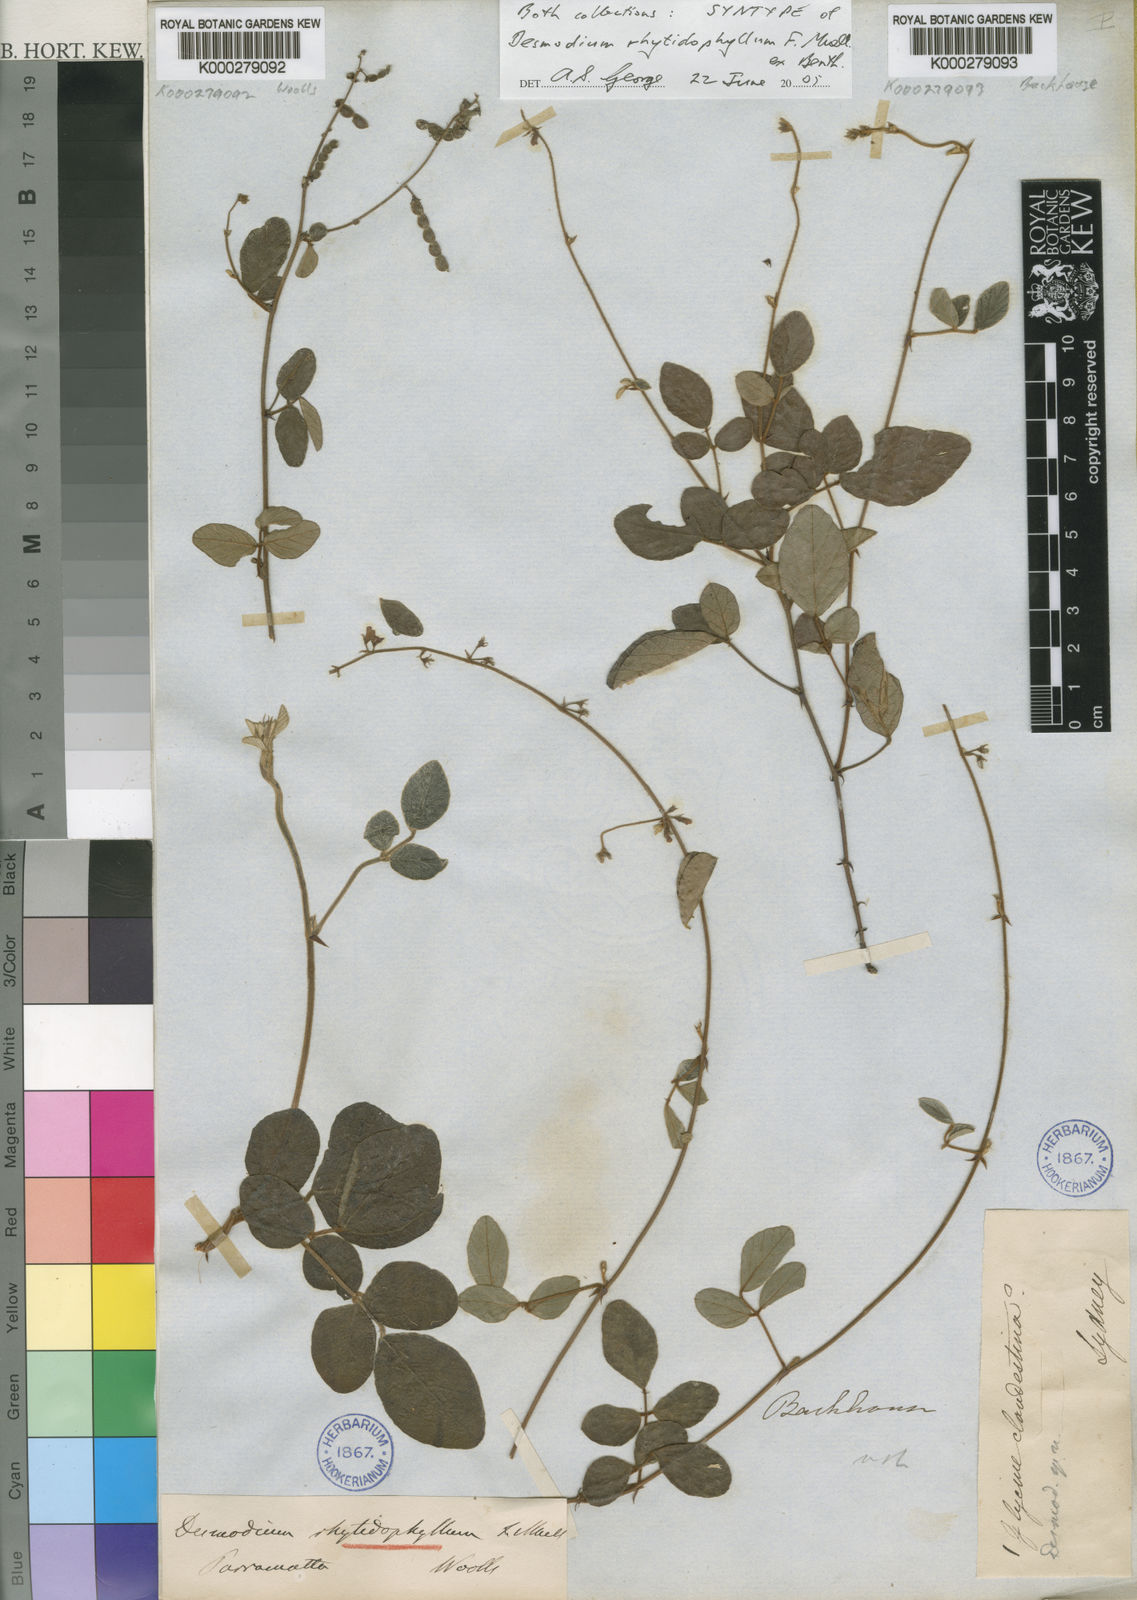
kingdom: Plantae
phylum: Tracheophyta
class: Magnoliopsida
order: Fabales
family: Fabaceae
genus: Maekawaea
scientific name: Maekawaea rhytidophylla
